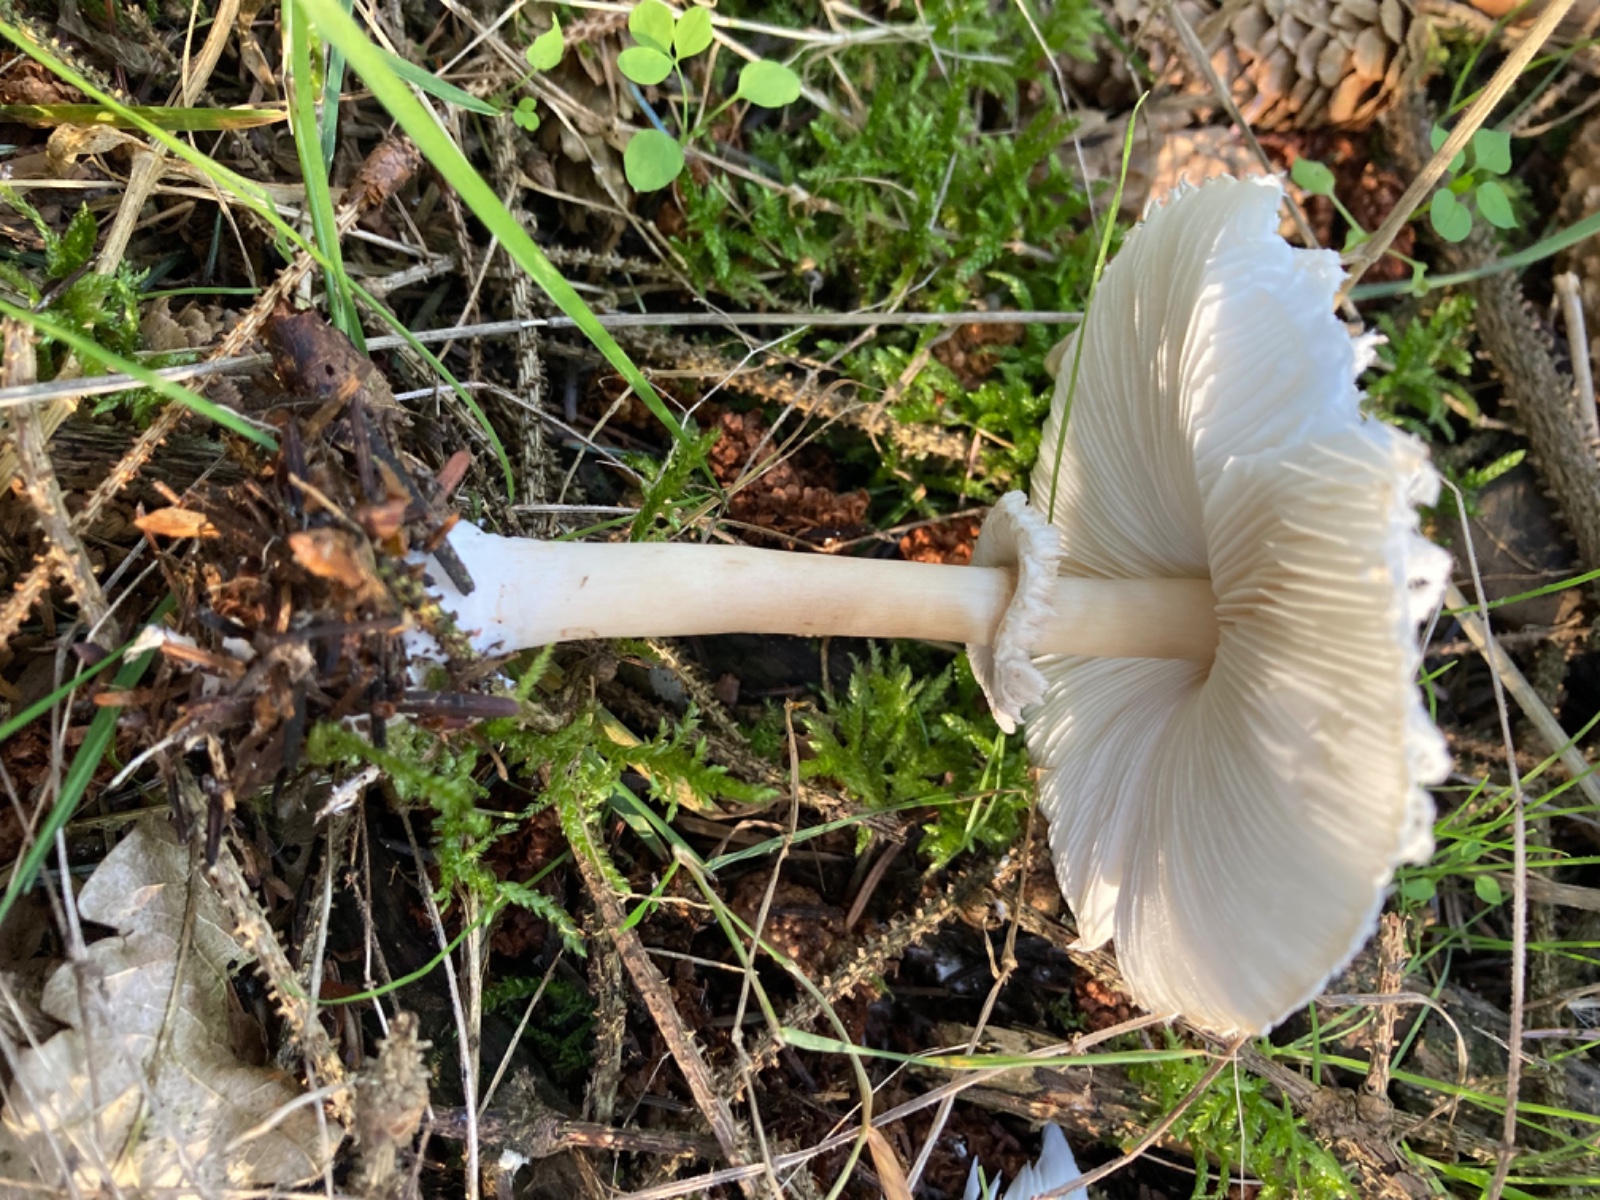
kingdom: Fungi
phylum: Basidiomycota
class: Agaricomycetes
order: Agaricales
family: Agaricaceae
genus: Leucoagaricus
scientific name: Leucoagaricus nympharum
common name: gran-silkehat
